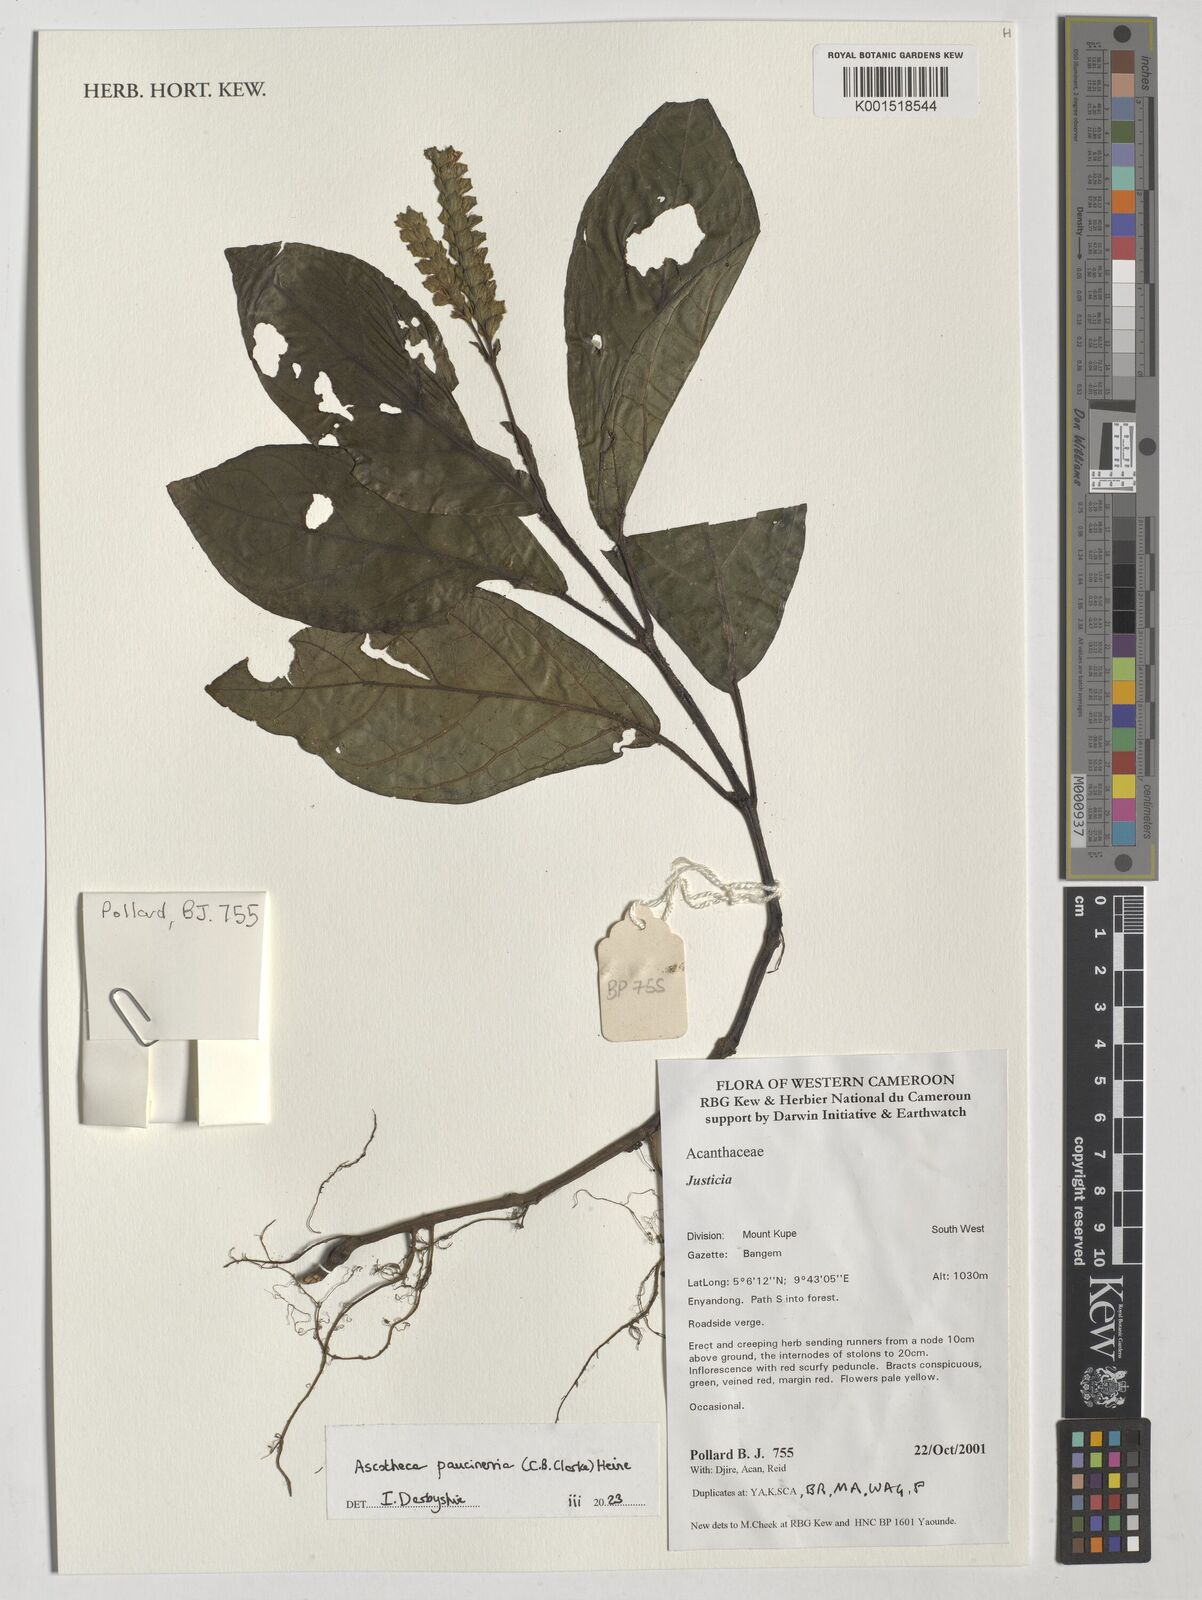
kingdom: Plantae
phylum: Tracheophyta
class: Magnoliopsida
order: Lamiales
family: Acanthaceae
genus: Ascotheca
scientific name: Ascotheca paucinervia
